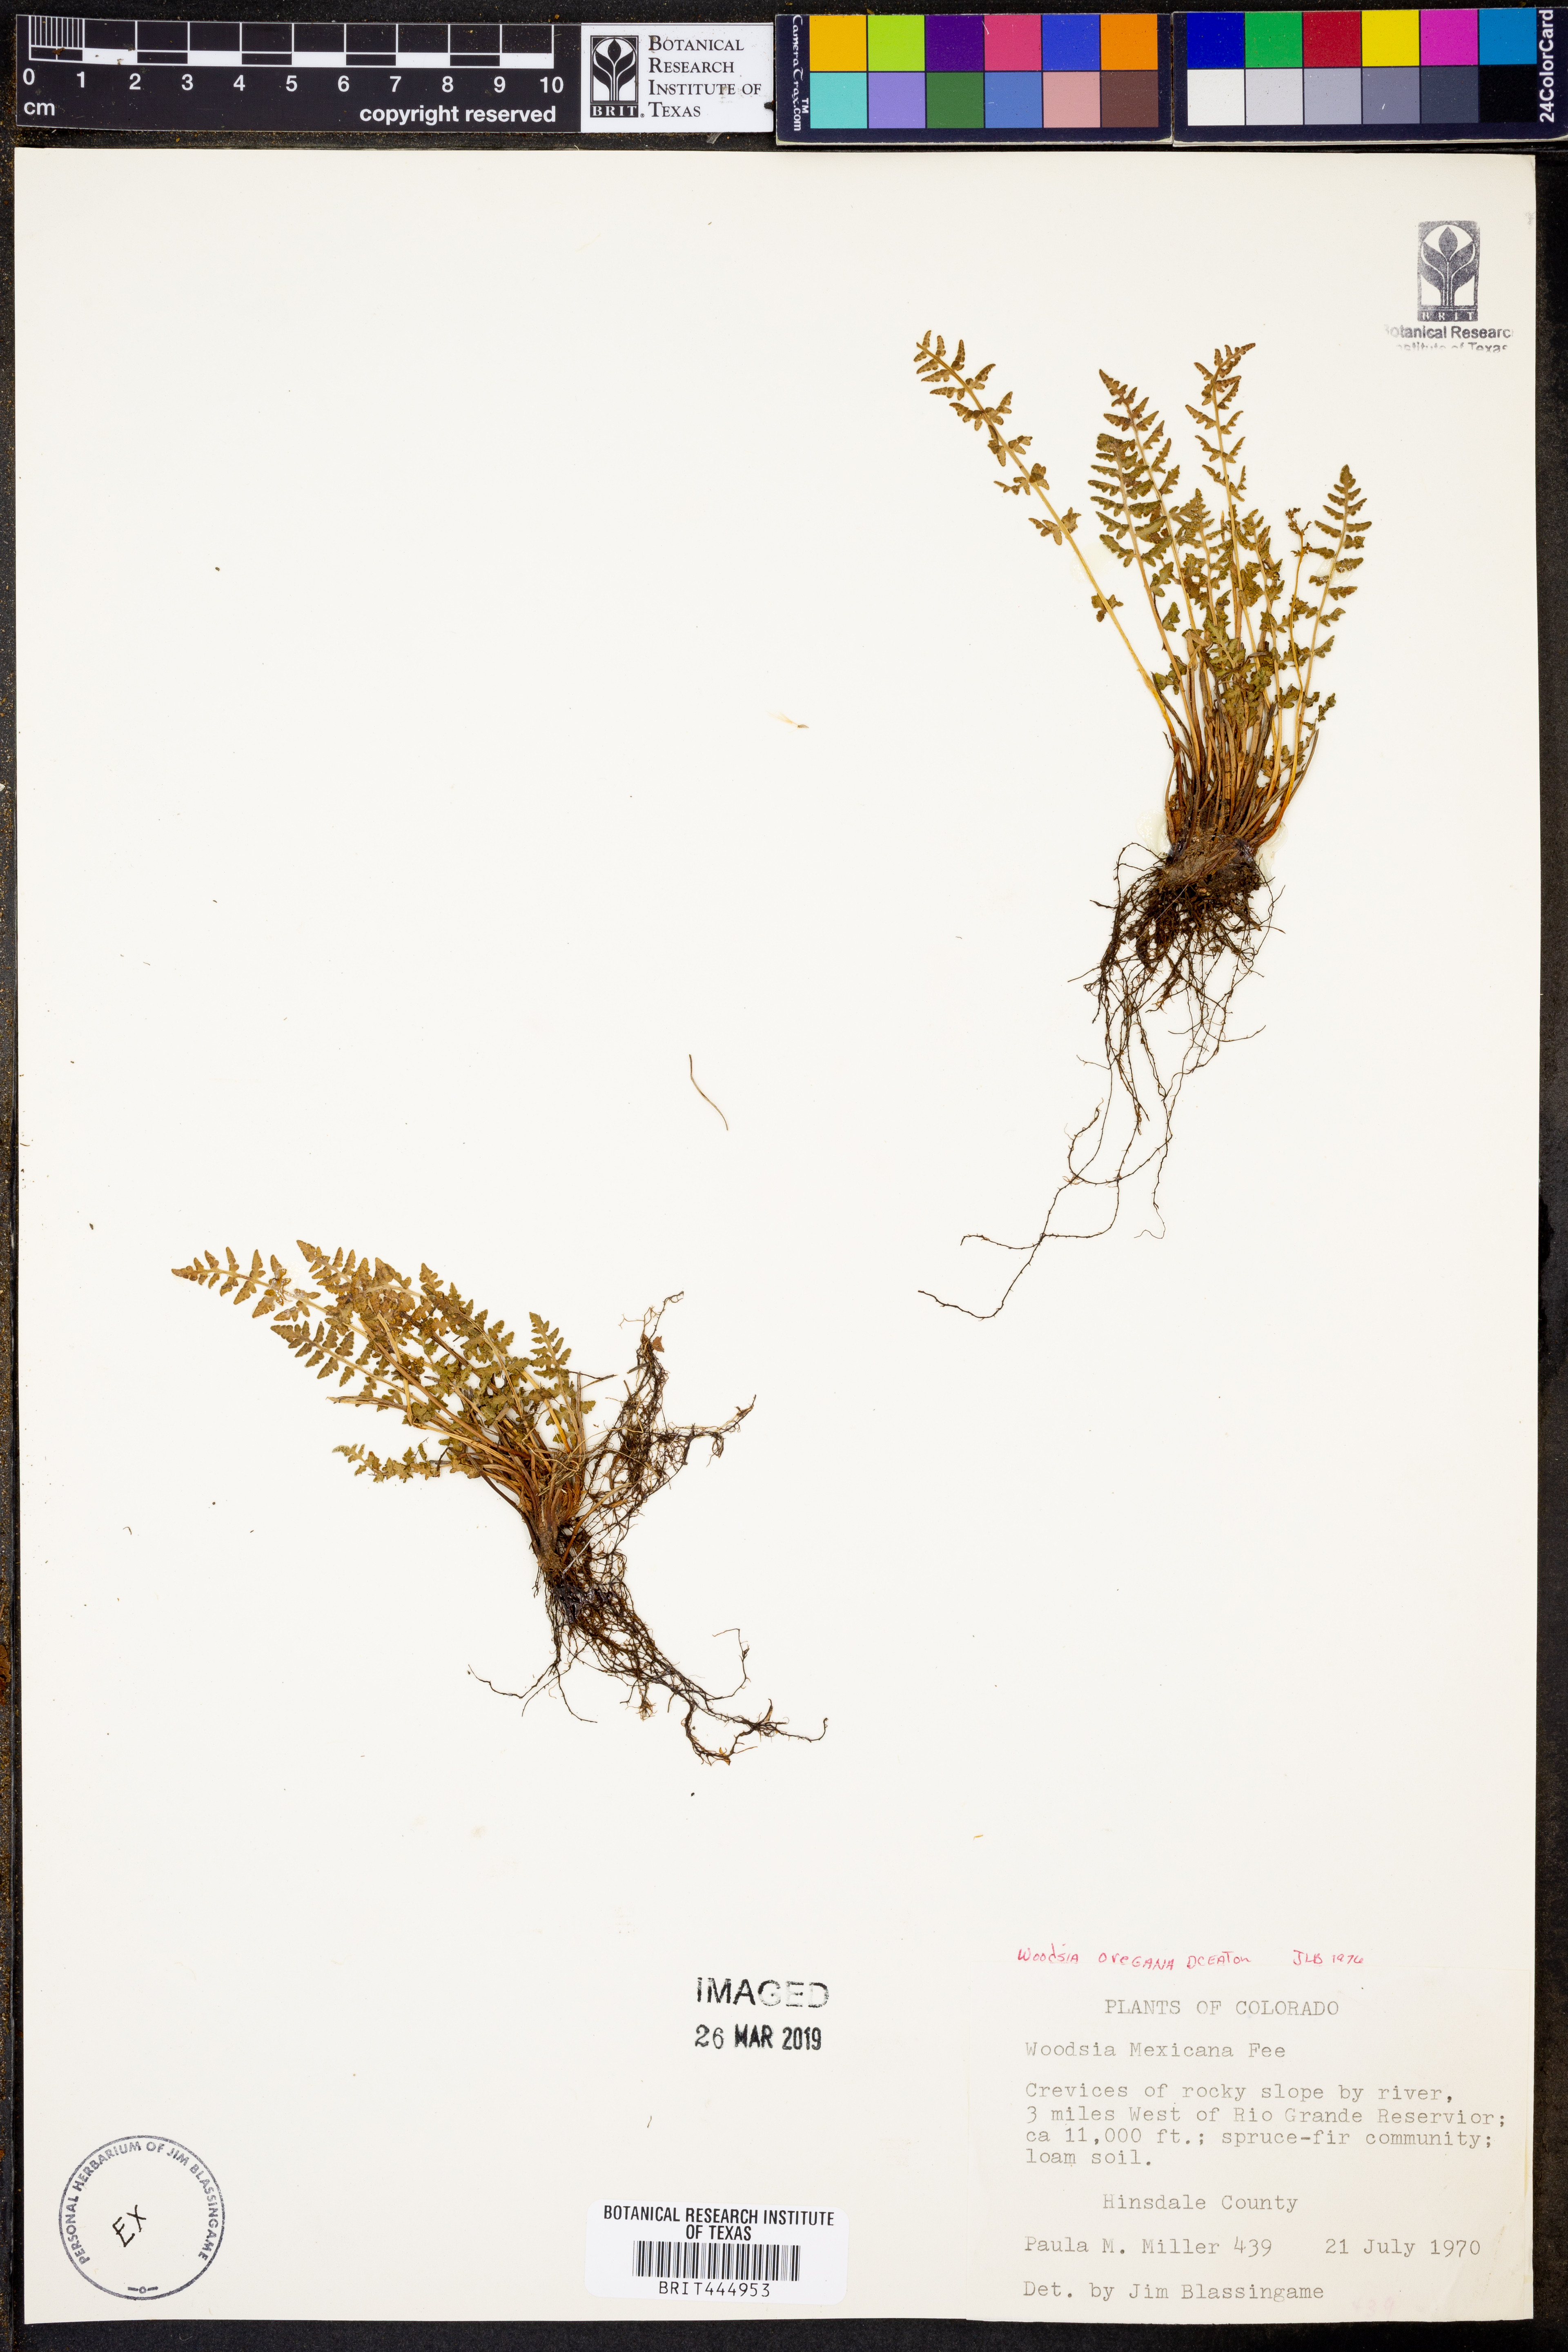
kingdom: Plantae
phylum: Tracheophyta
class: Polypodiopsida
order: Polypodiales
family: Woodsiaceae
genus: Physematium
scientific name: Physematium oreganum
